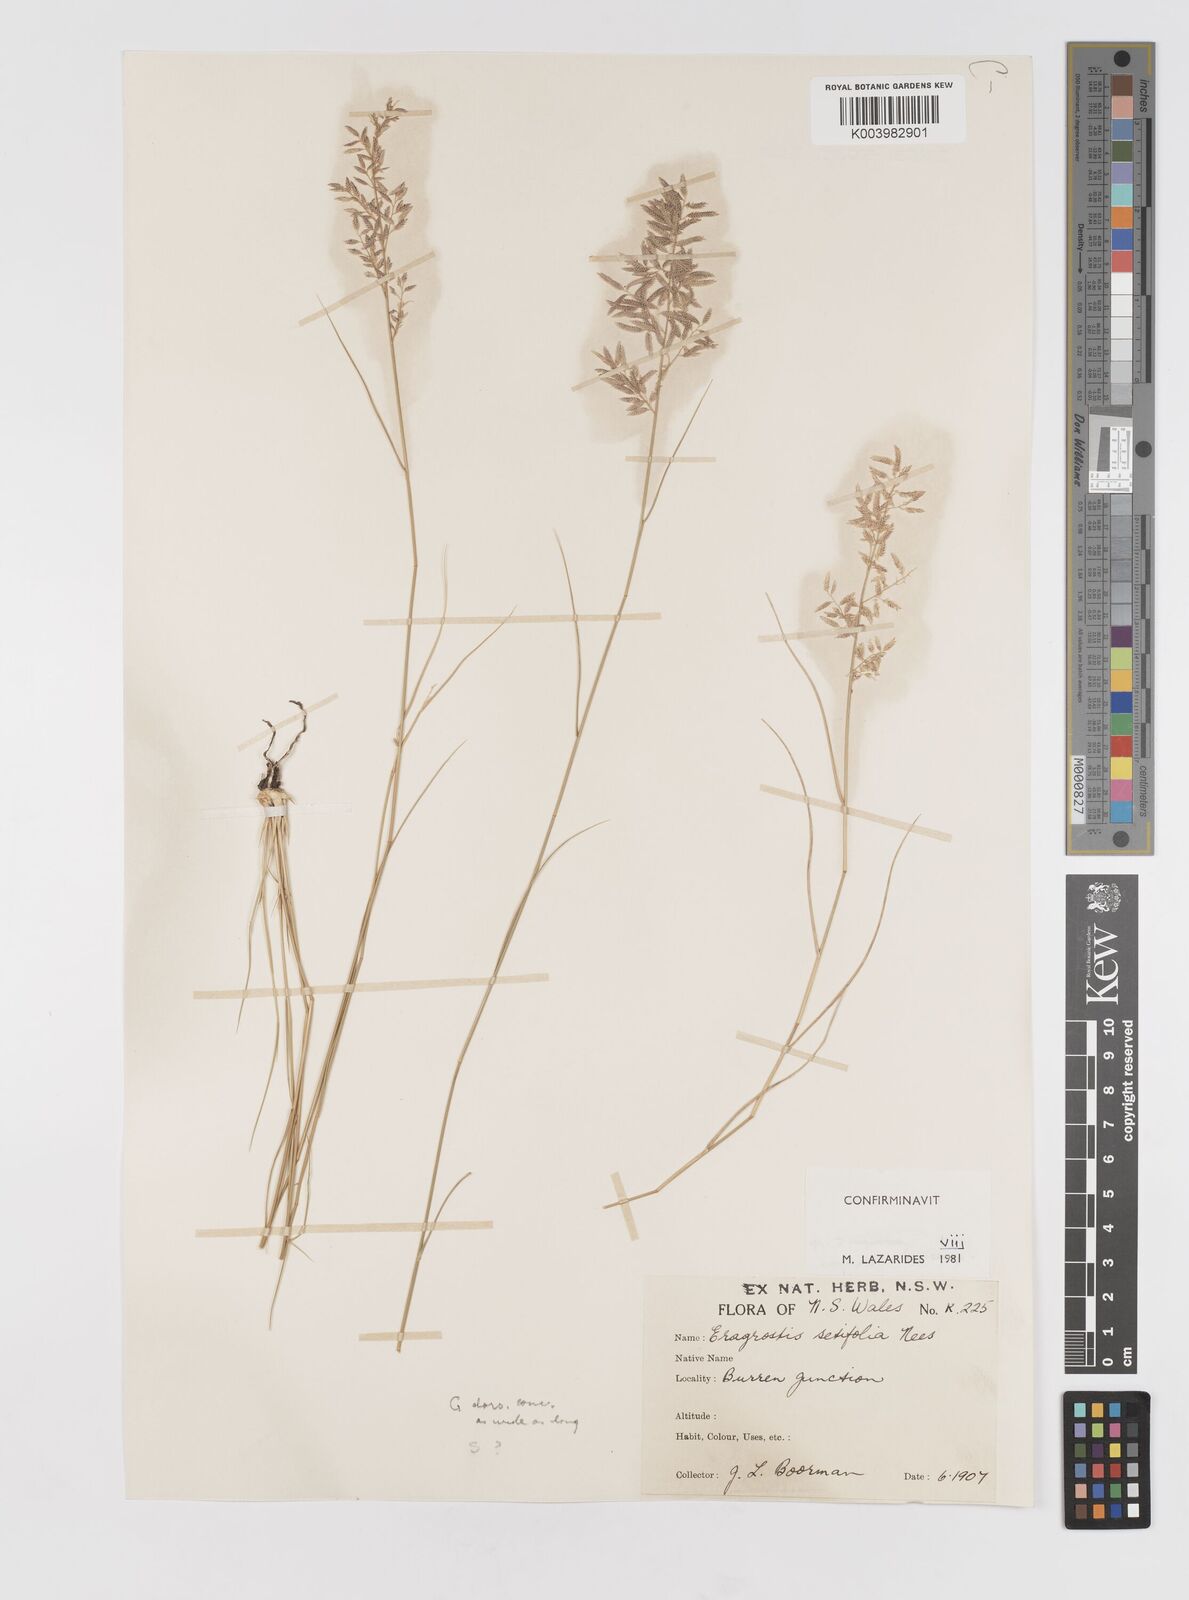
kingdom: Plantae
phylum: Tracheophyta
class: Liliopsida
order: Poales
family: Poaceae
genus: Eragrostis
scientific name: Eragrostis setifolia
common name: Bristleleaf lovegrass
